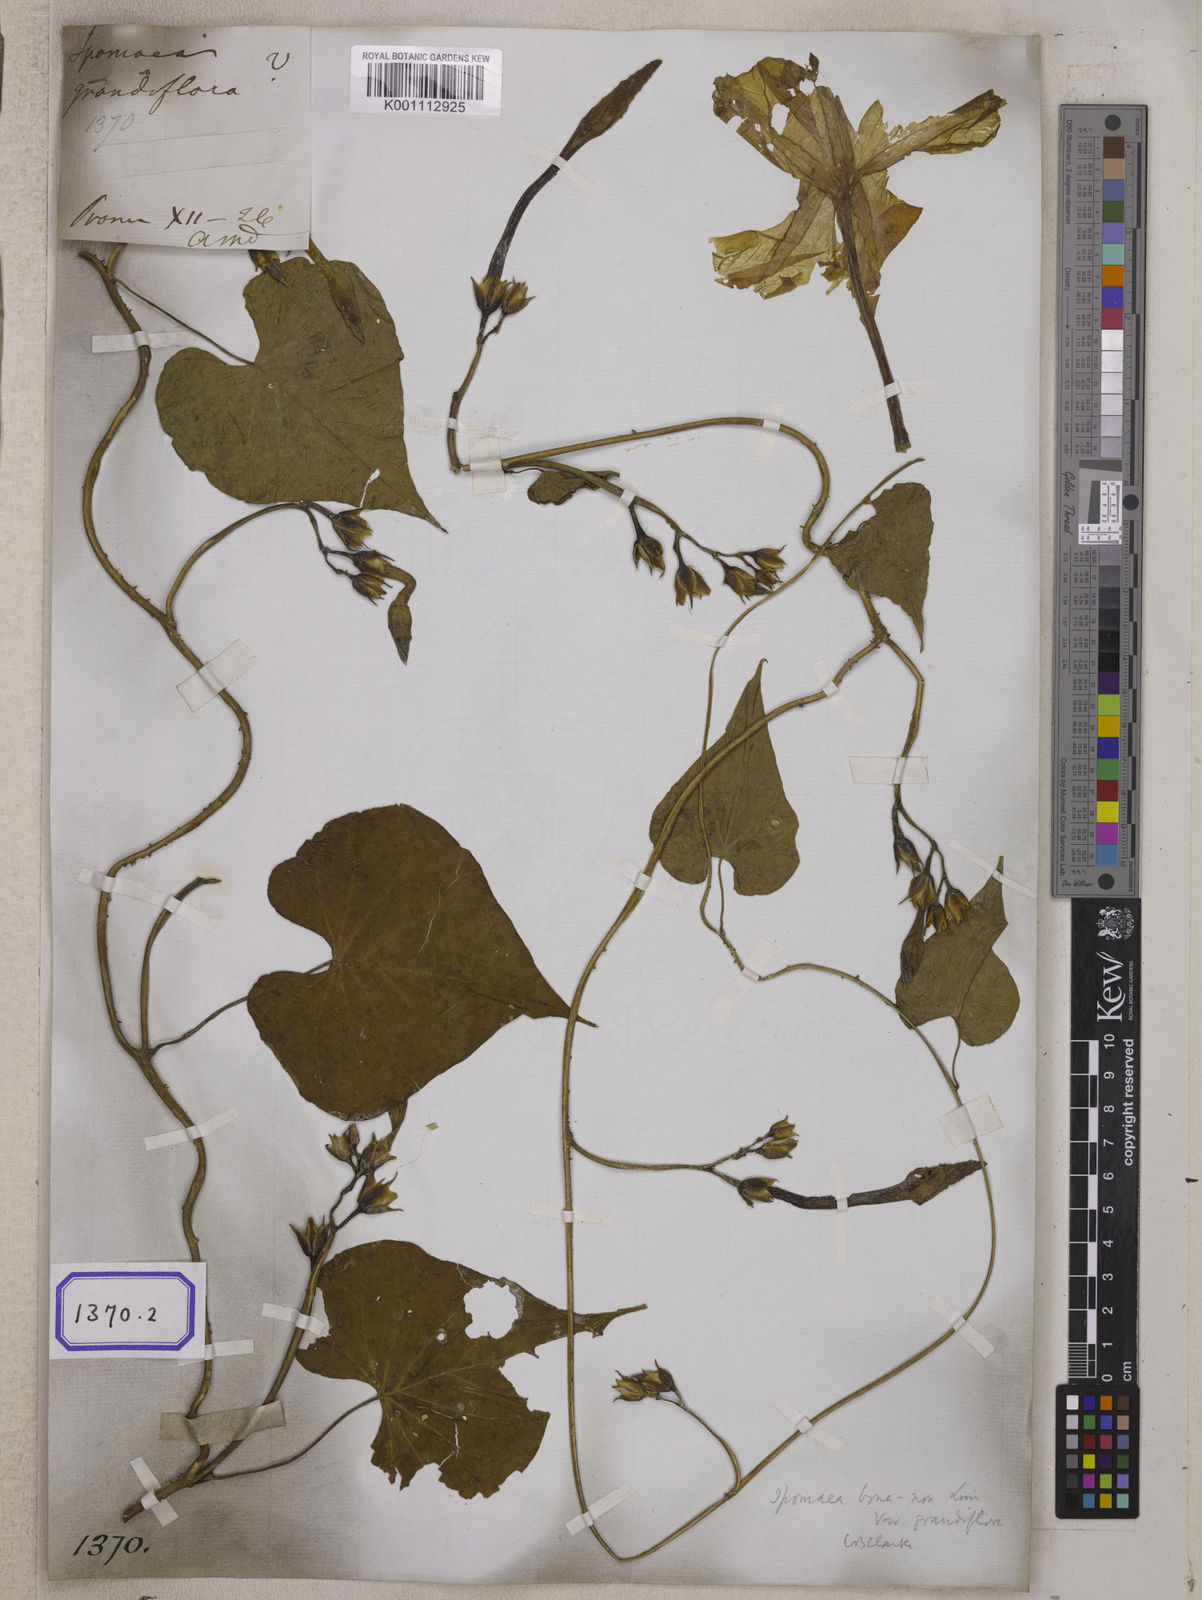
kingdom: Plantae
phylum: Tracheophyta
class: Magnoliopsida
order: Solanales
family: Convolvulaceae
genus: Convolvulus
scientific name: Convolvulus
